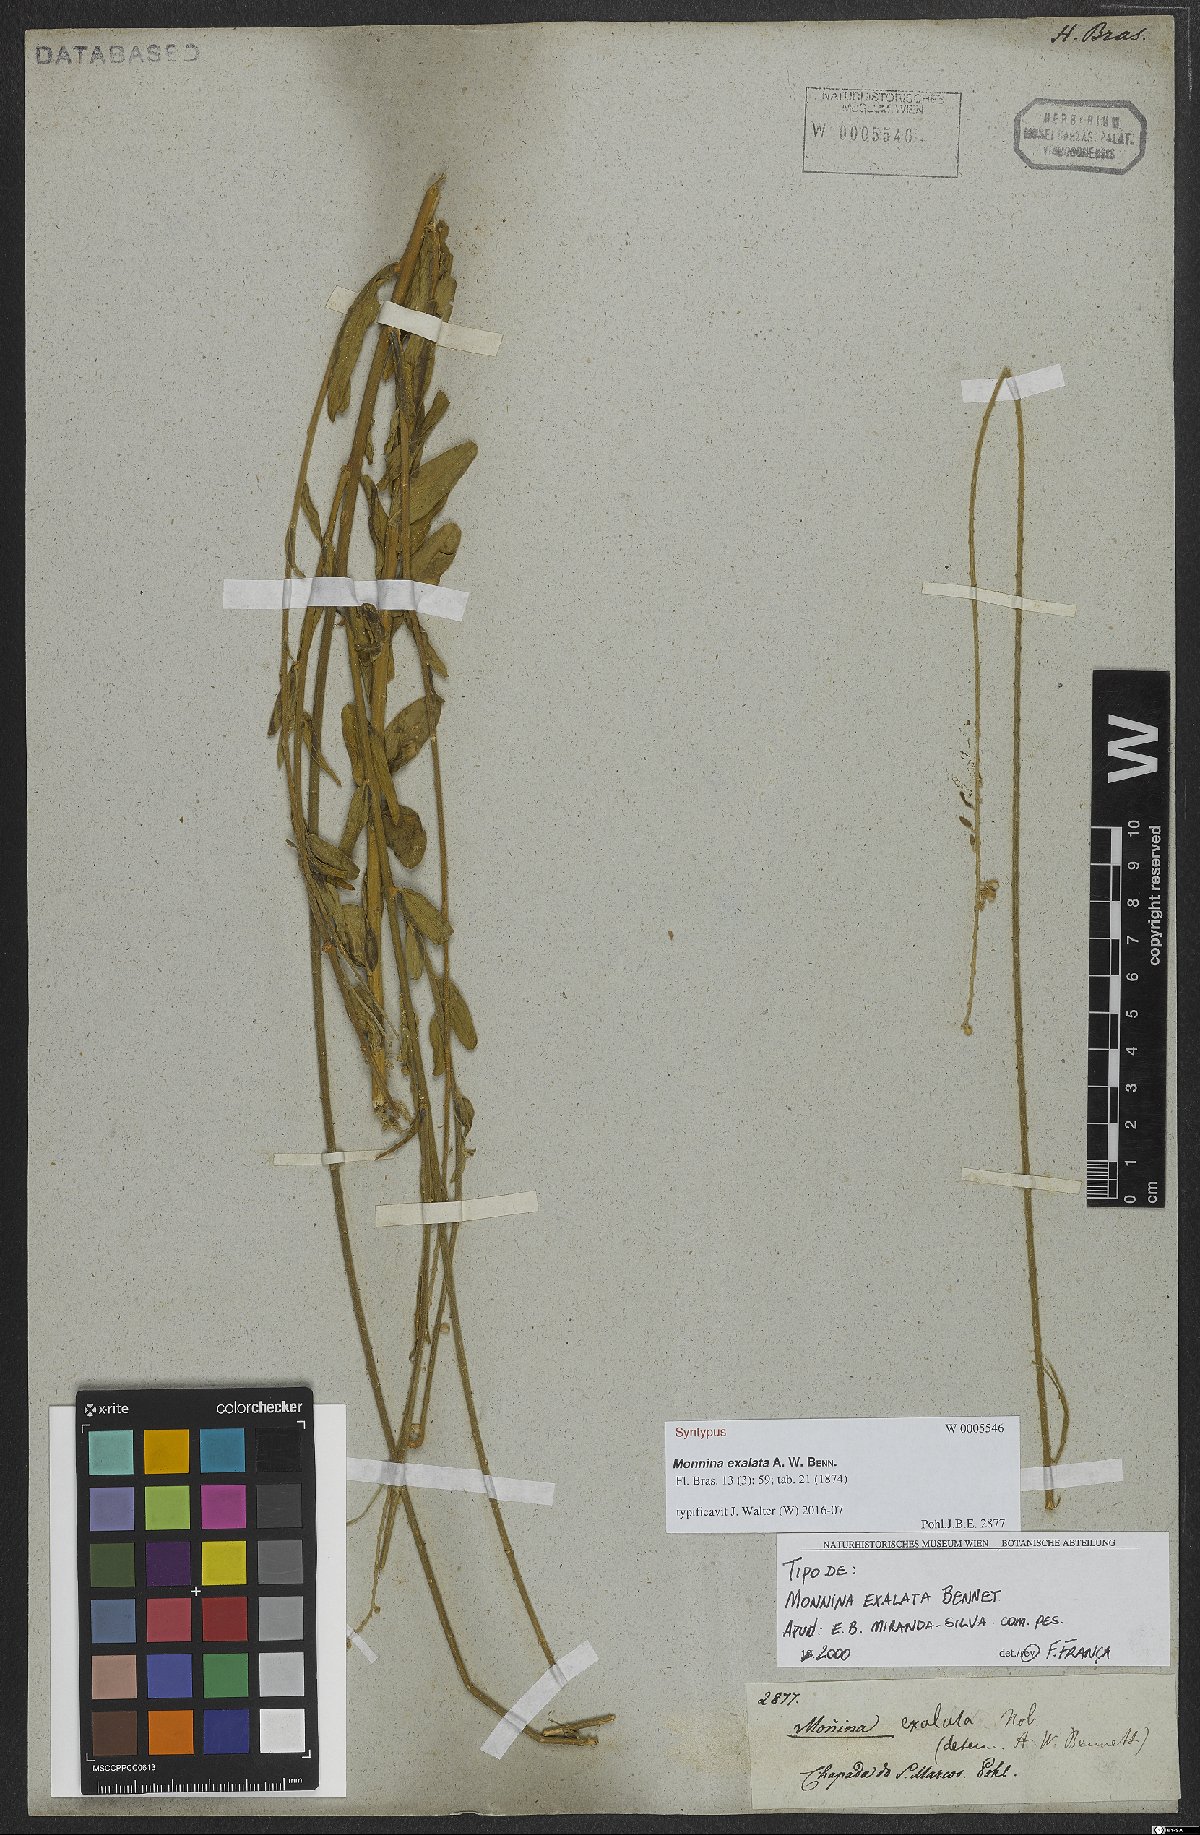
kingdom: Plantae
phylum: Tracheophyta
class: Magnoliopsida
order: Fabales
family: Polygalaceae
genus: Monnina
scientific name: Monnina exalata
